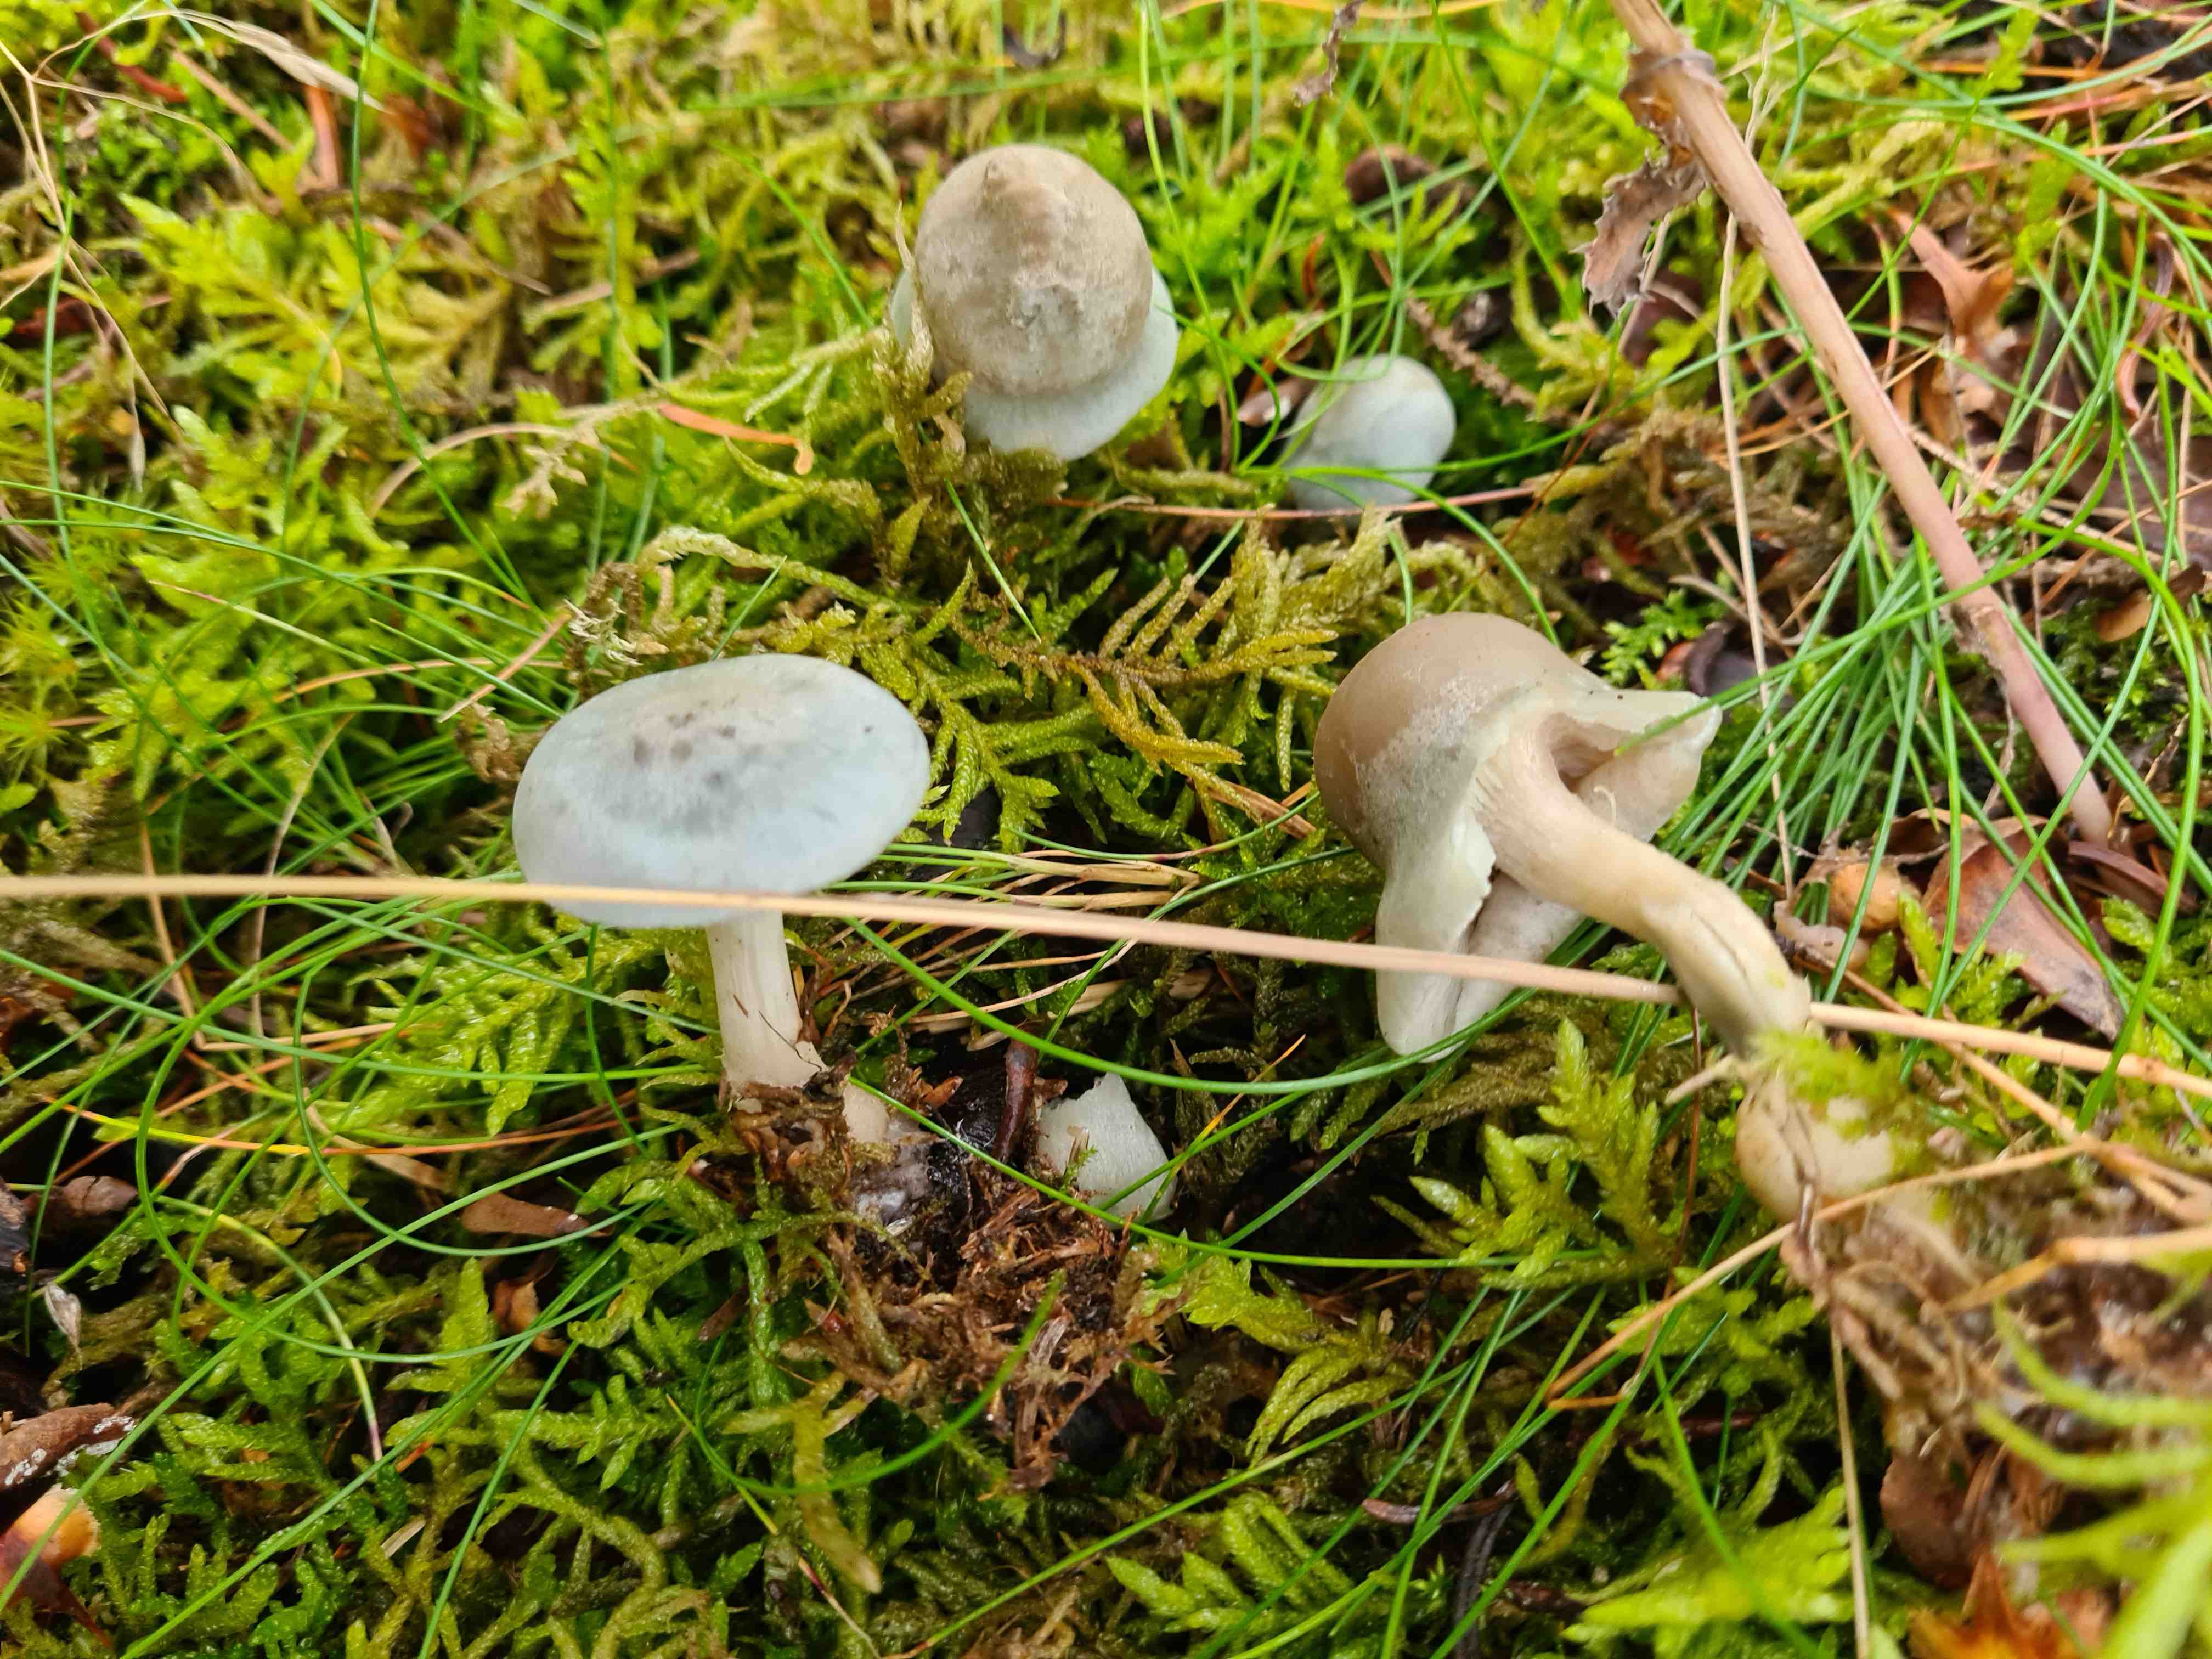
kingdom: Fungi
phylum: Basidiomycota
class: Agaricomycetes
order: Agaricales
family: Tricholomataceae
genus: Clitocybe
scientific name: Clitocybe odora
